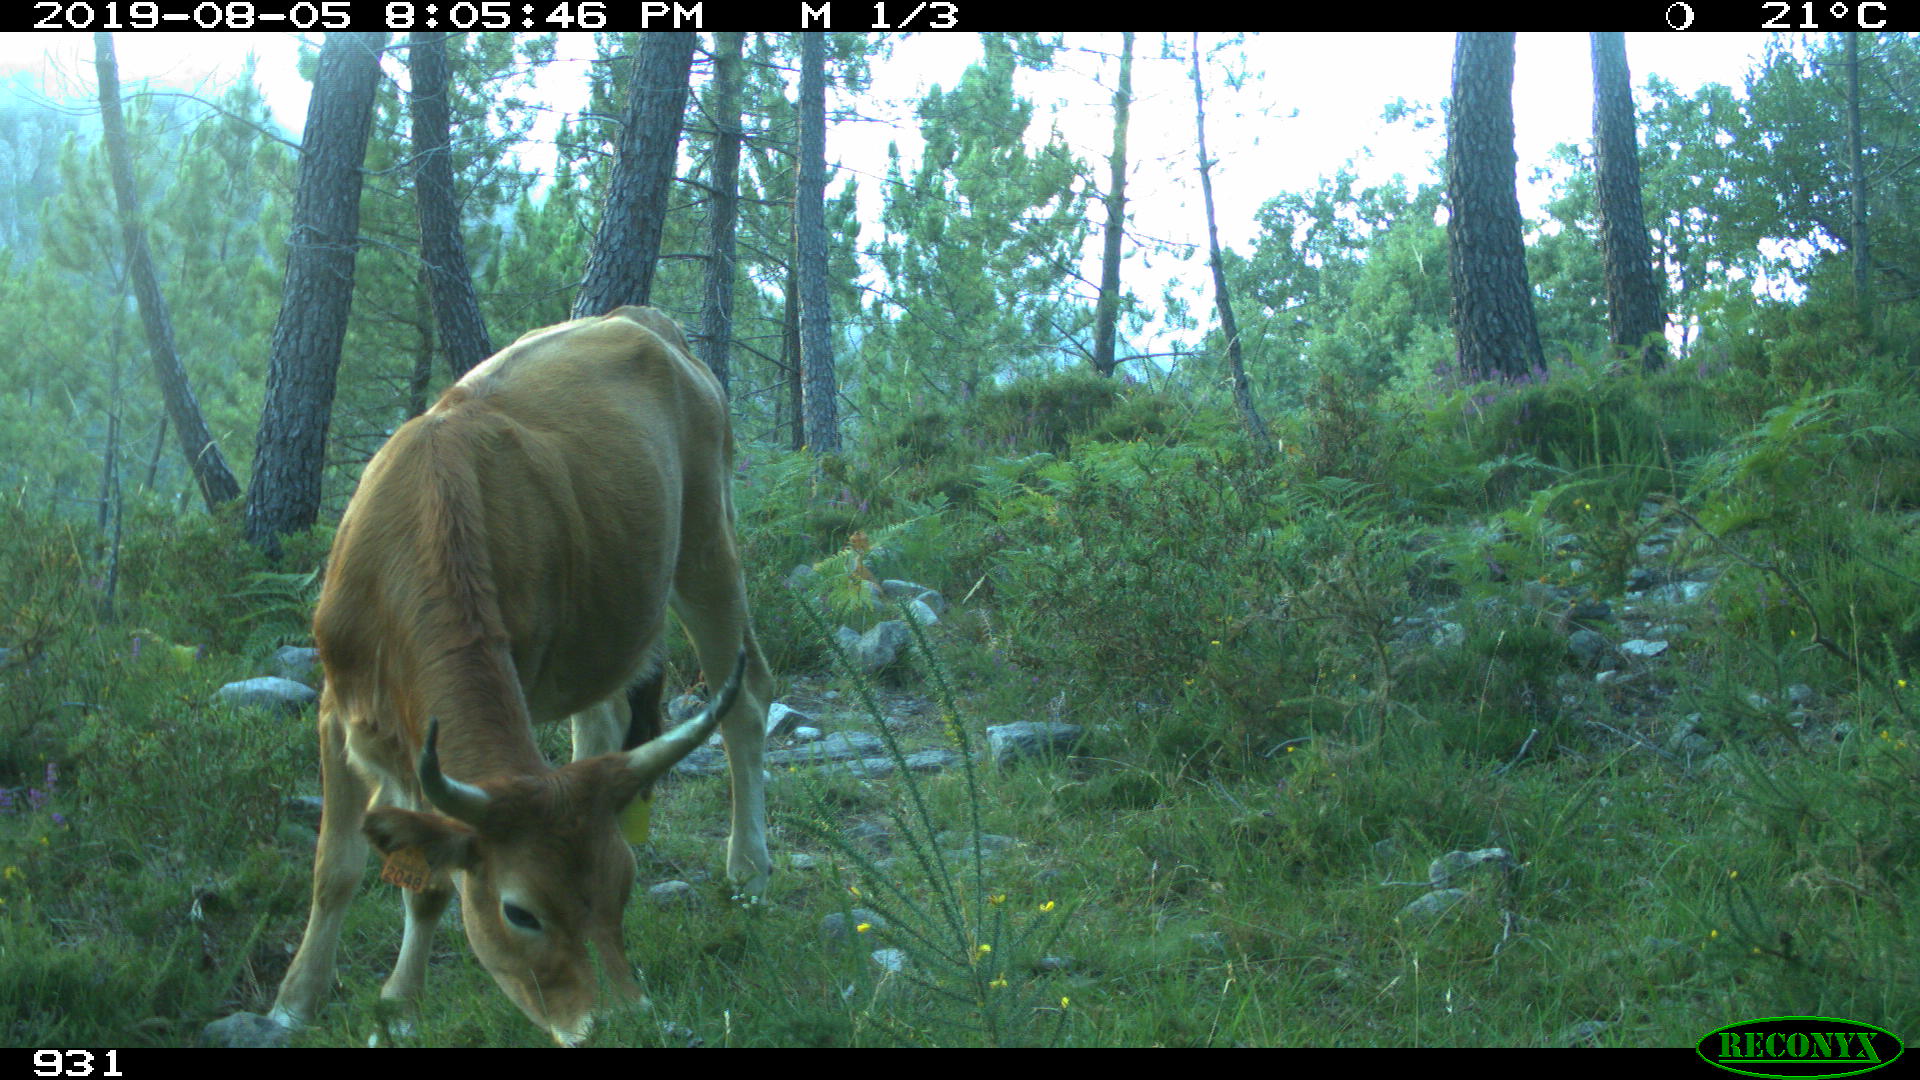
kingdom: Animalia
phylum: Chordata
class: Mammalia
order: Artiodactyla
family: Bovidae
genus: Bos
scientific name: Bos taurus
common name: Domesticated cattle
